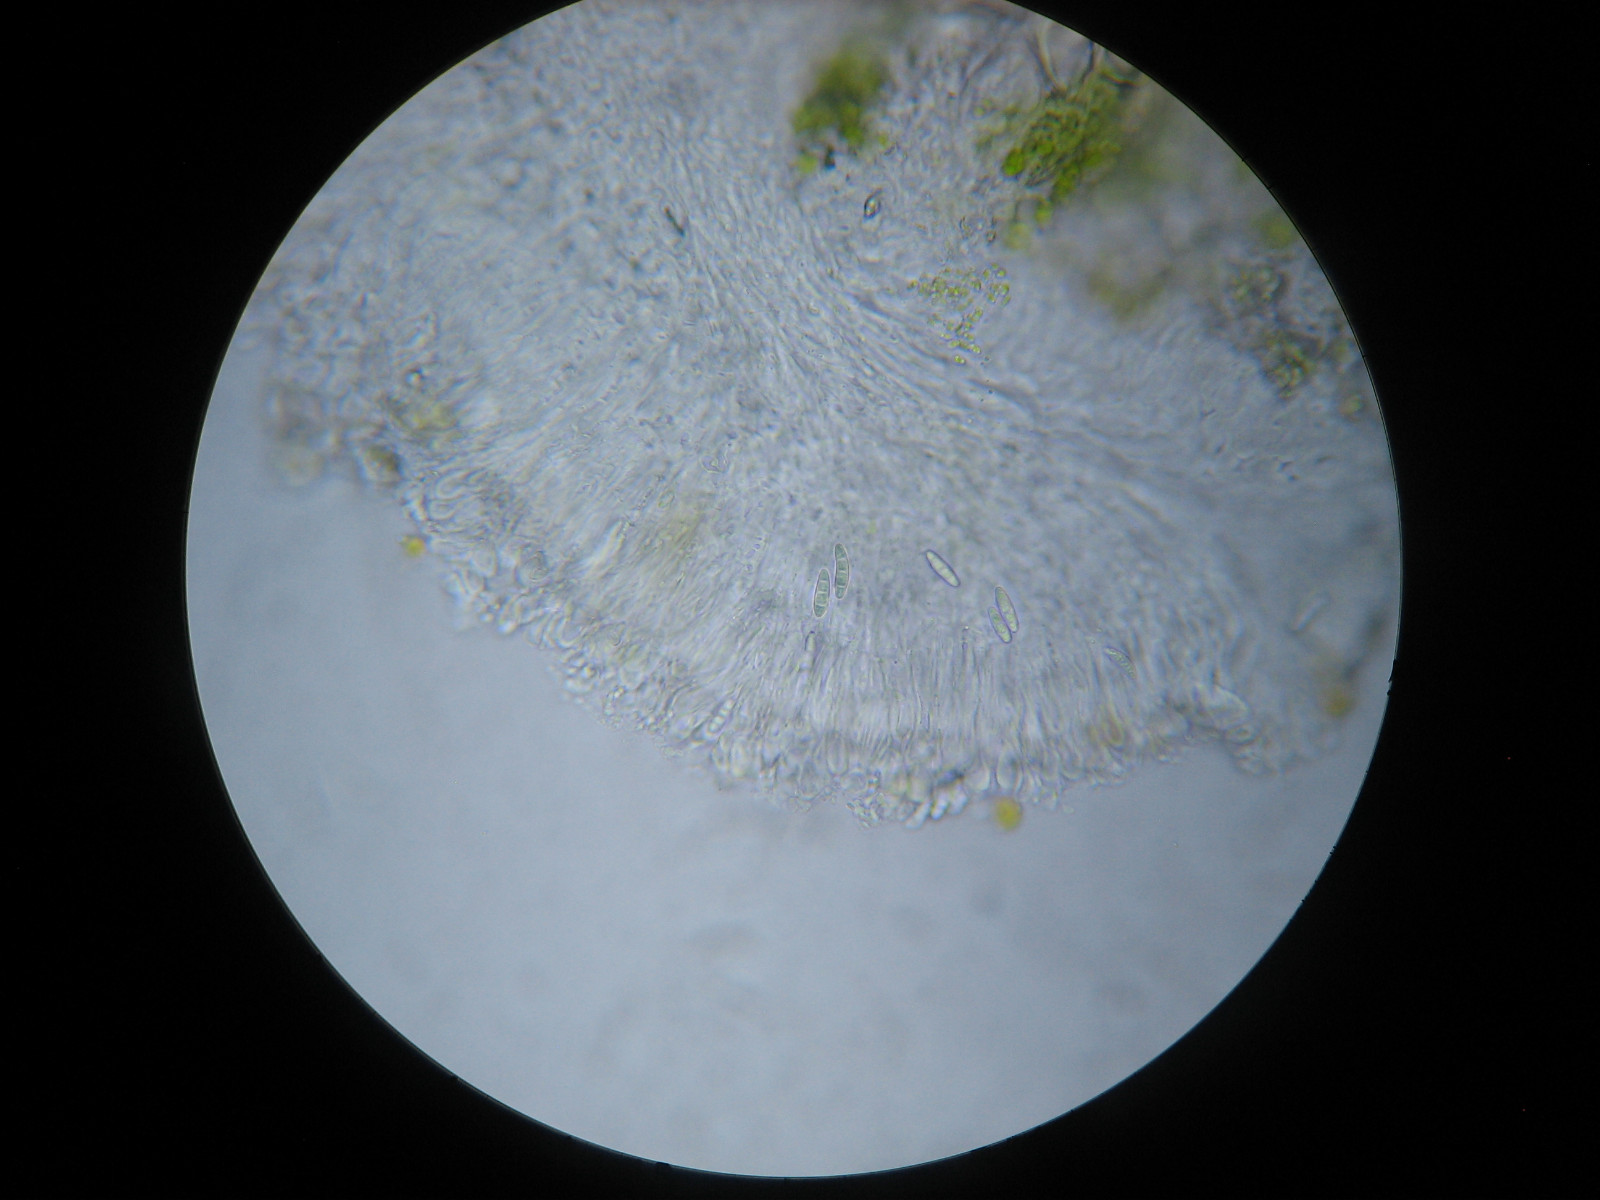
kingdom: Fungi
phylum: Ascomycota
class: Lecanoromycetes
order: Lecanorales
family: Ramalinaceae
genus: Lecania
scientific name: Lecania naegelii
